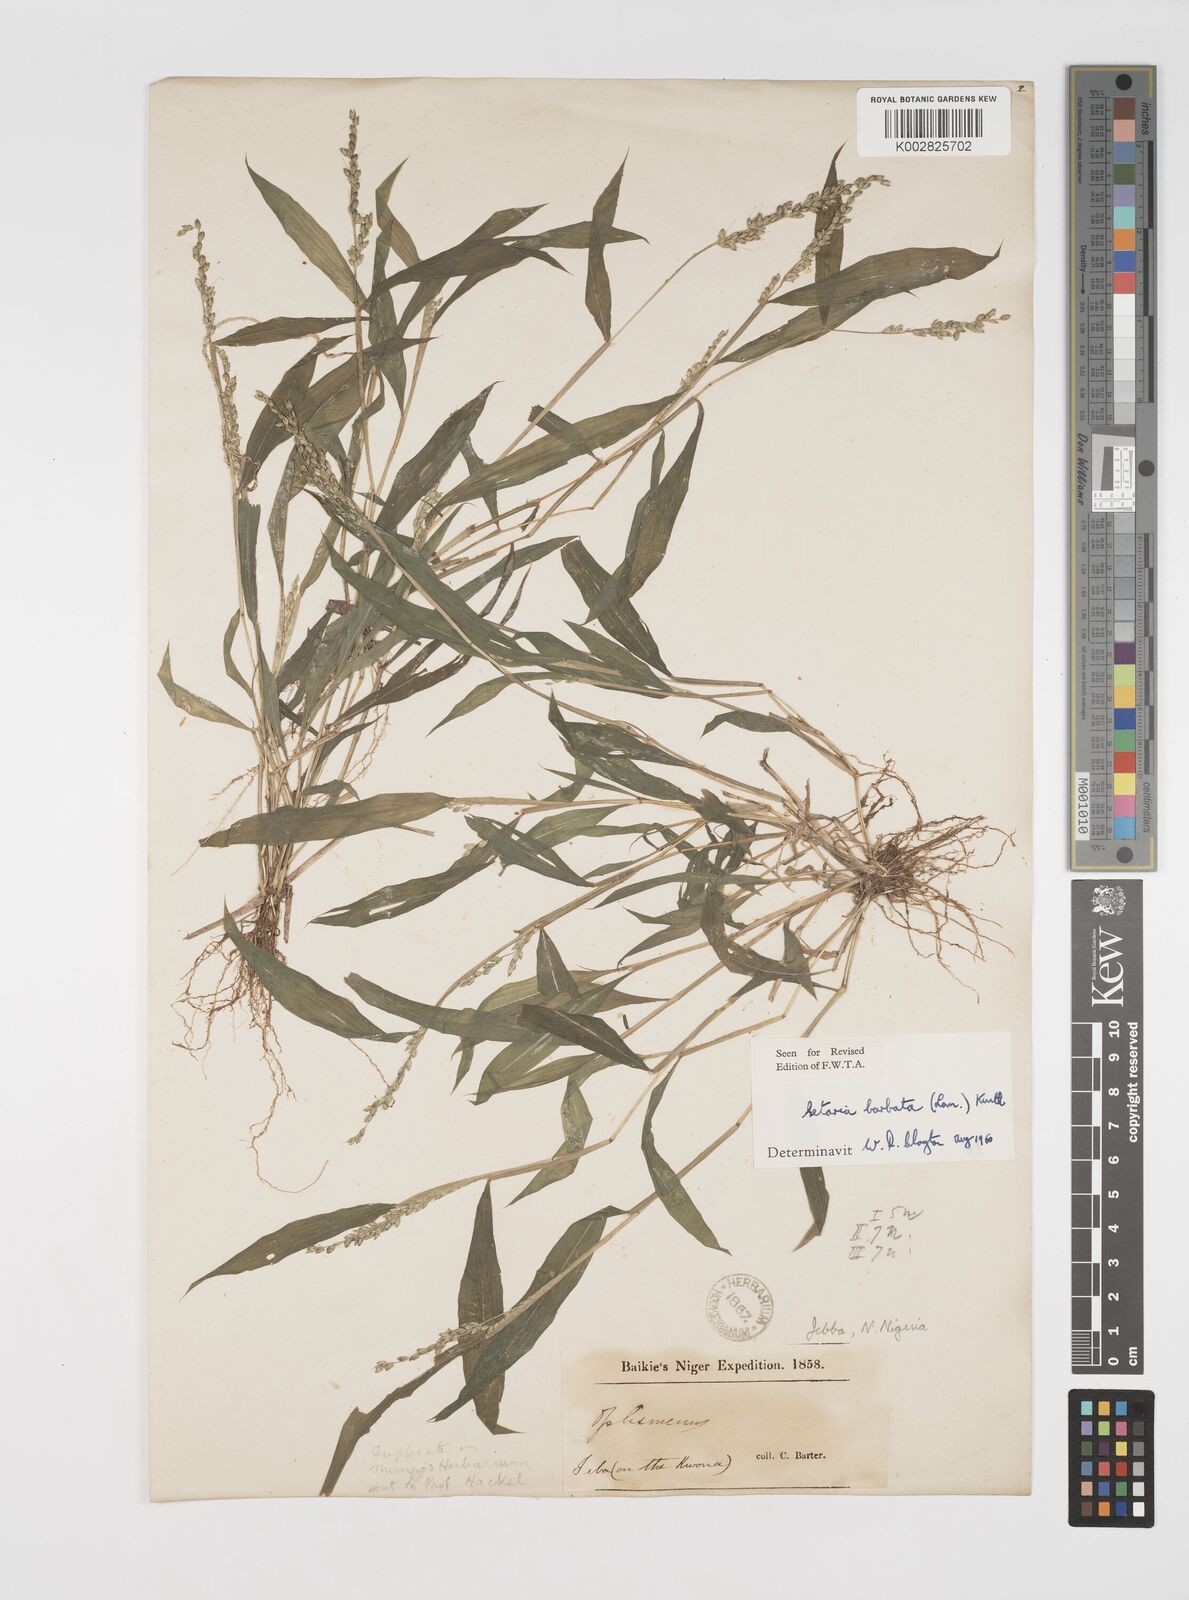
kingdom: Plantae
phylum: Tracheophyta
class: Liliopsida
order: Poales
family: Poaceae
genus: Setaria
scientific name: Setaria barbata
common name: East indian bristlegrass
